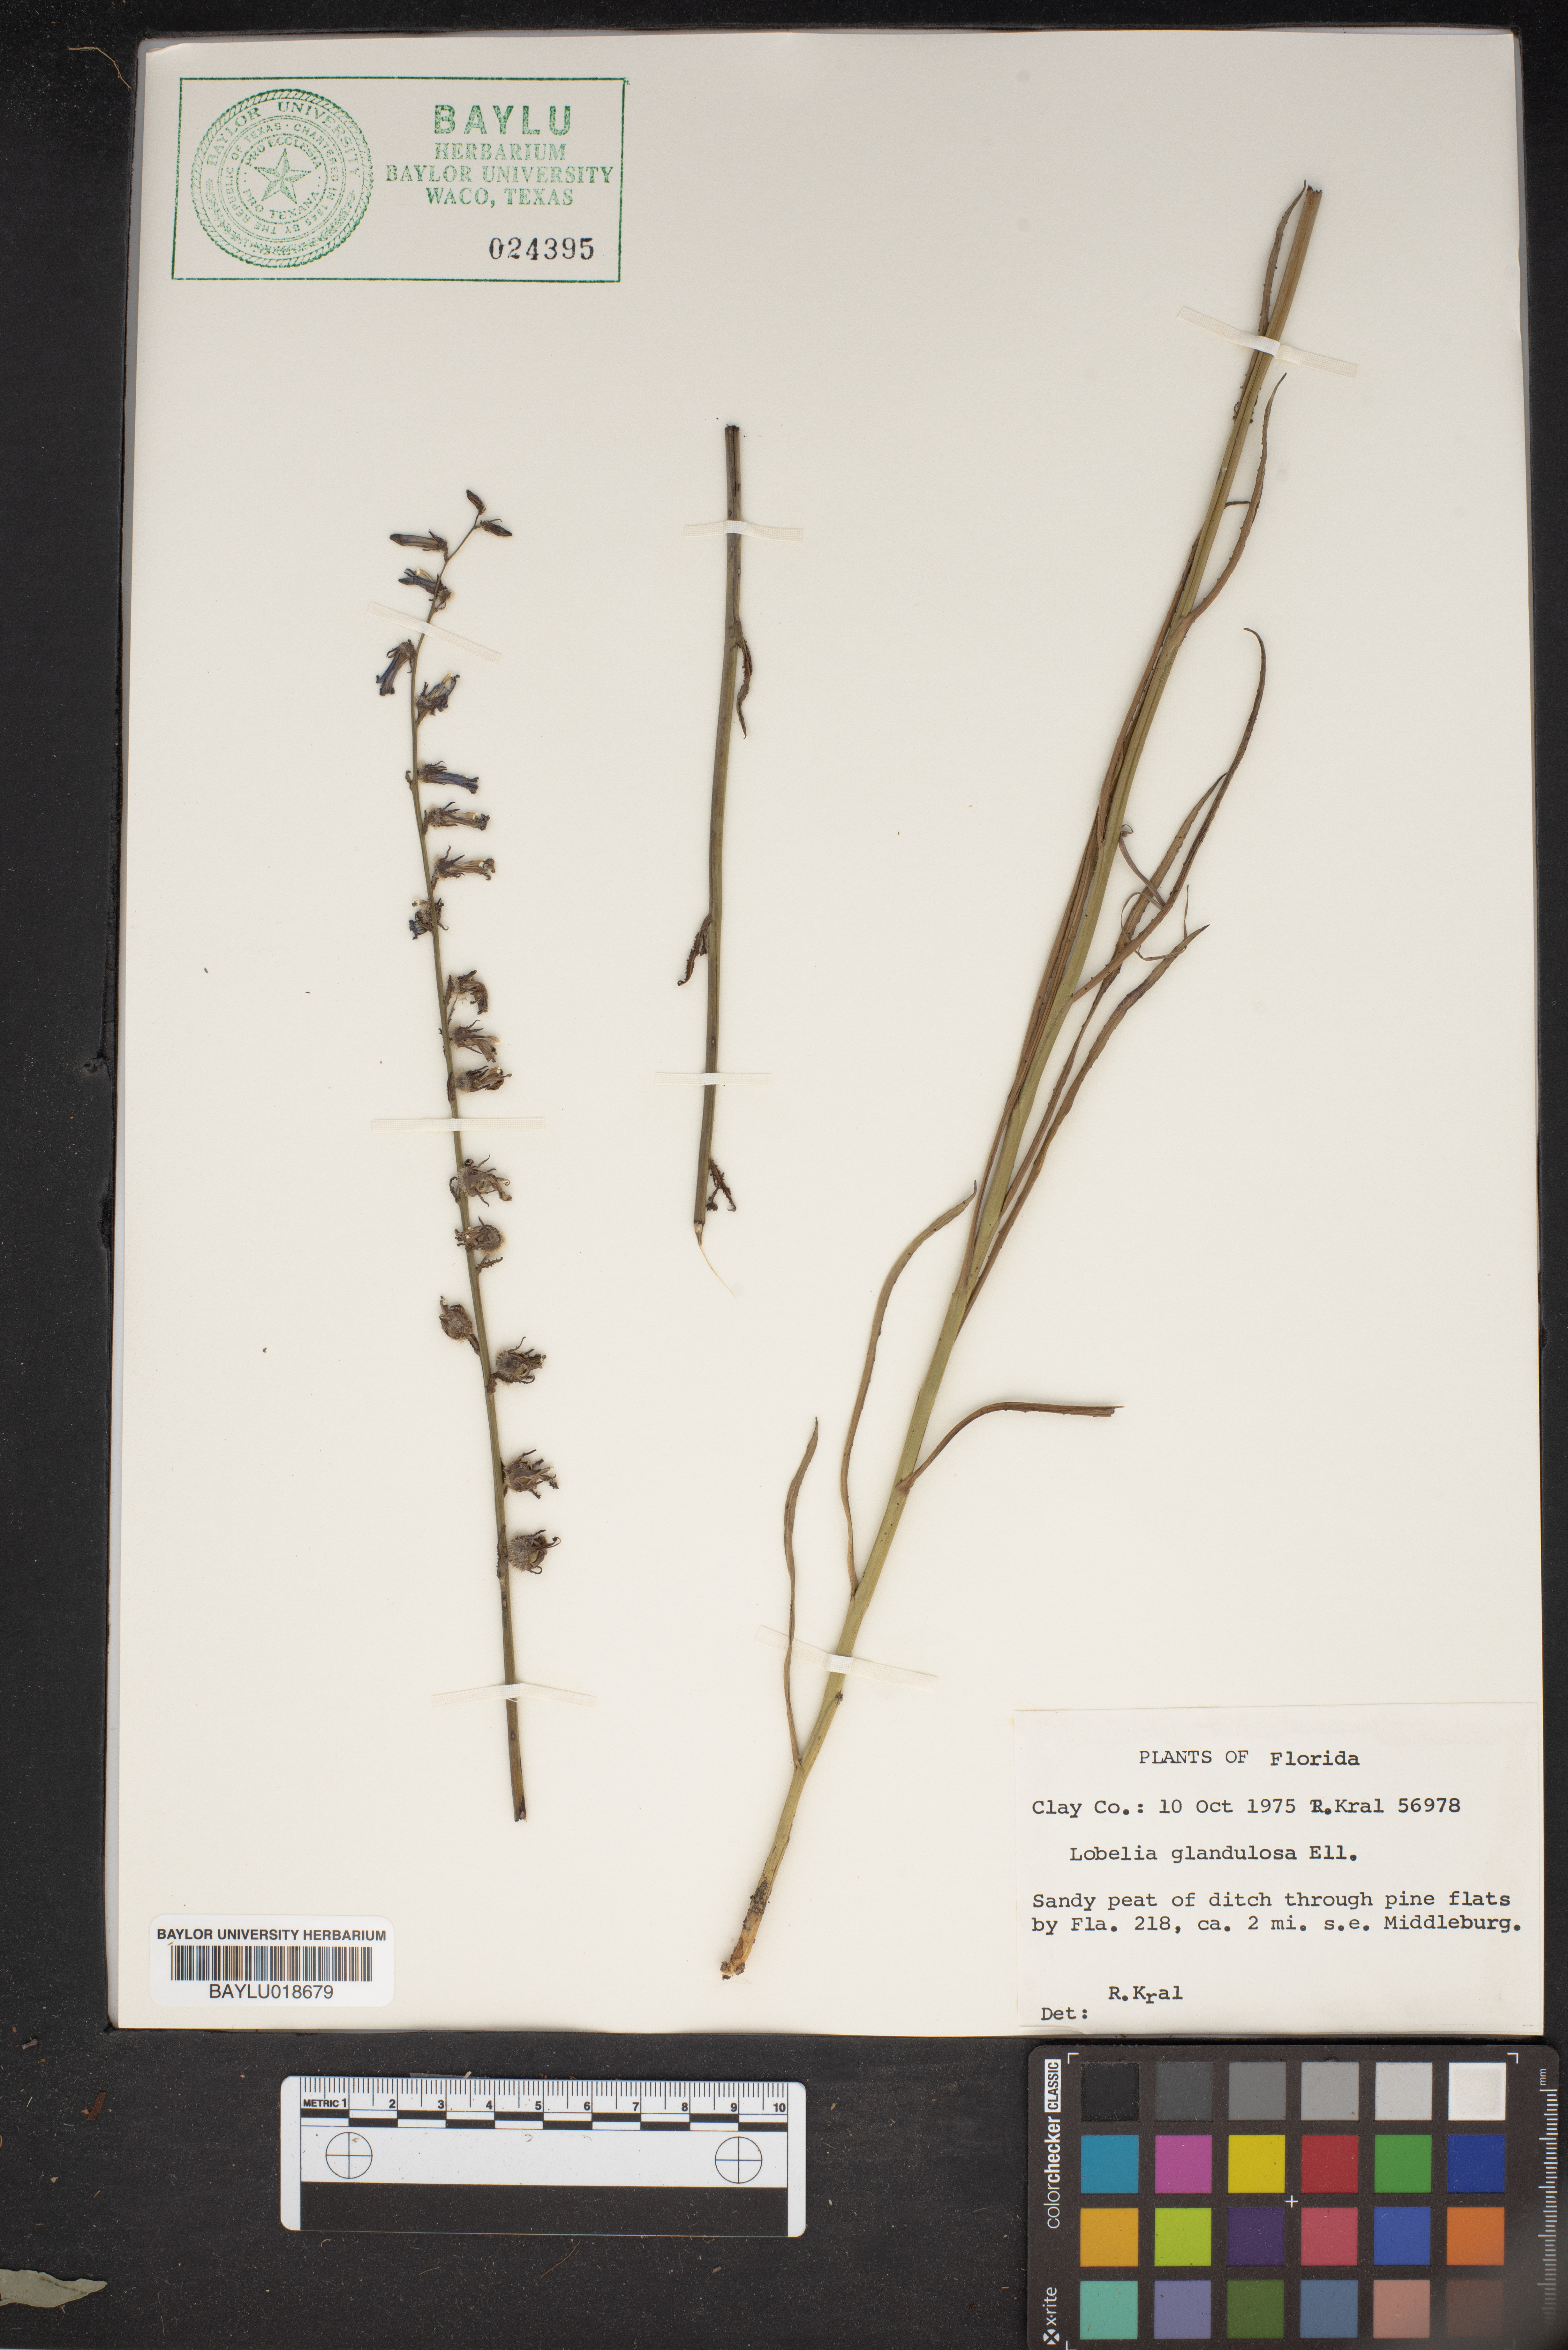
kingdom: Plantae
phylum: Tracheophyta
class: Magnoliopsida
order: Asterales
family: Campanulaceae
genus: Lobelia
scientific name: Lobelia glandulosa
